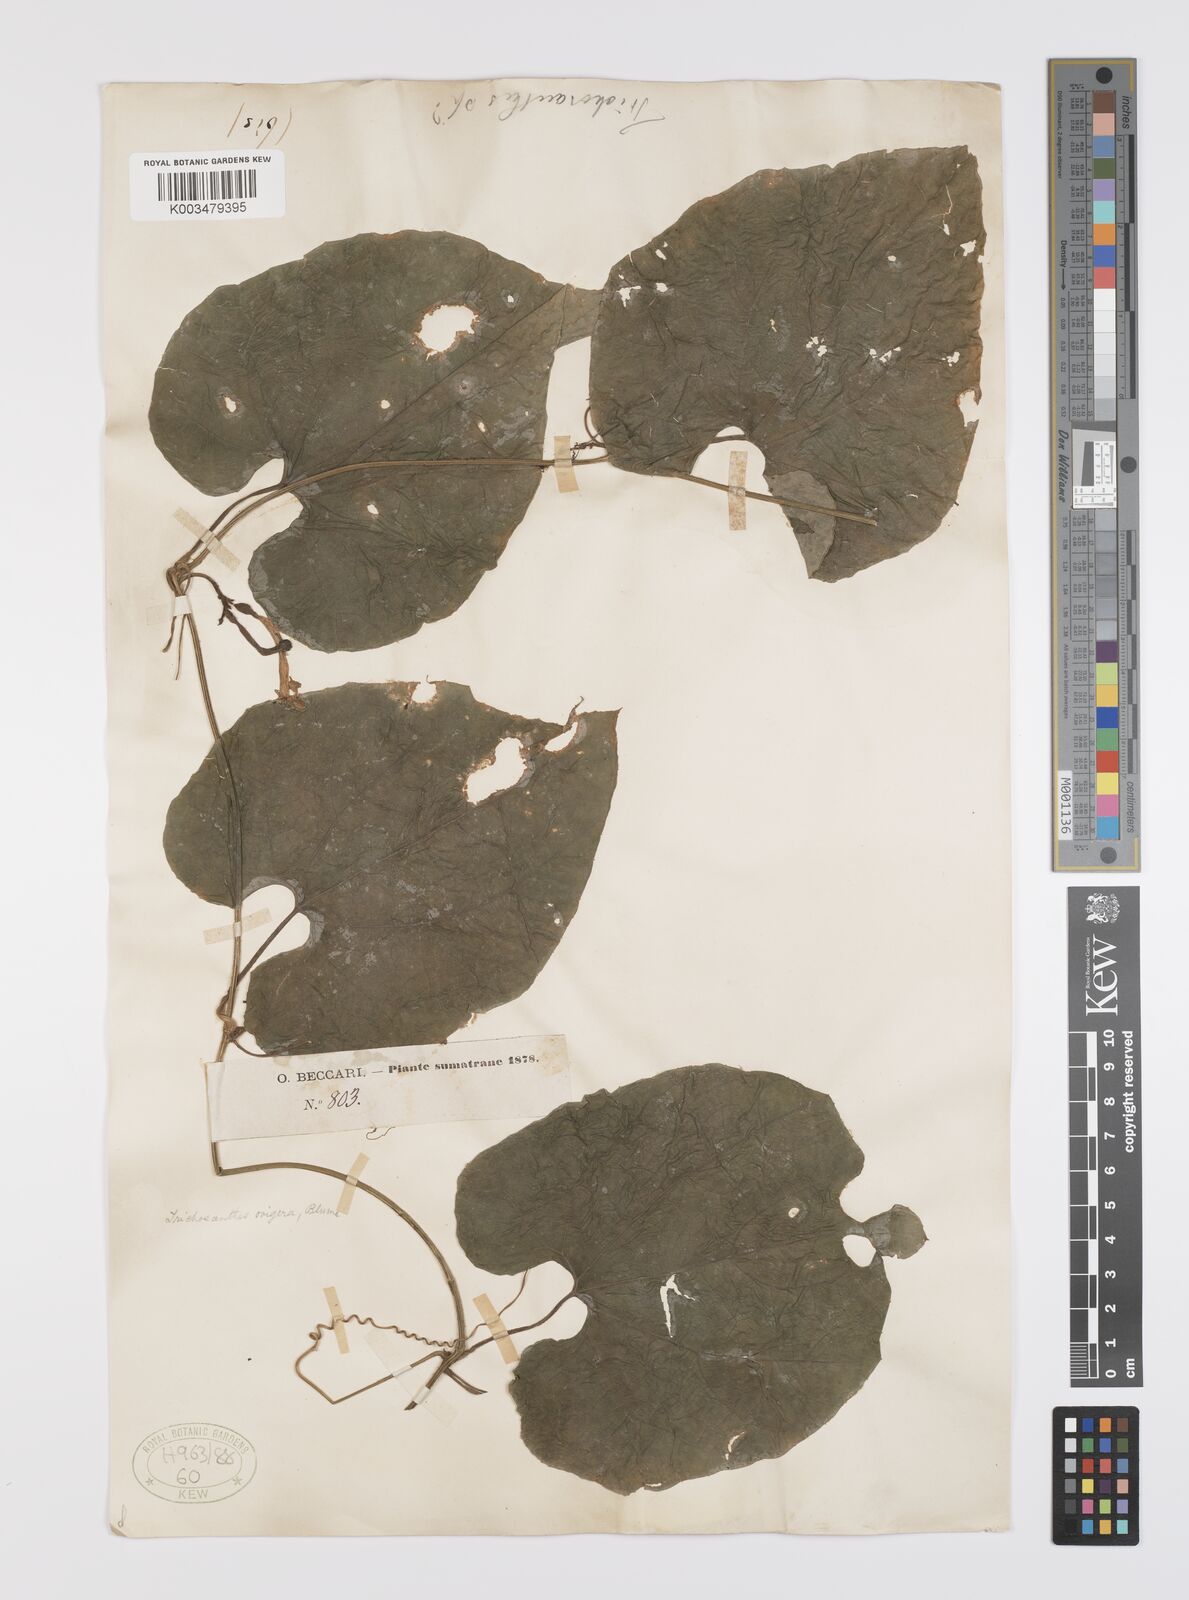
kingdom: Plantae
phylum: Tracheophyta
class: Magnoliopsida
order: Cucurbitales
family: Cucurbitaceae
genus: Trichosanthes
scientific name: Trichosanthes ovigera
